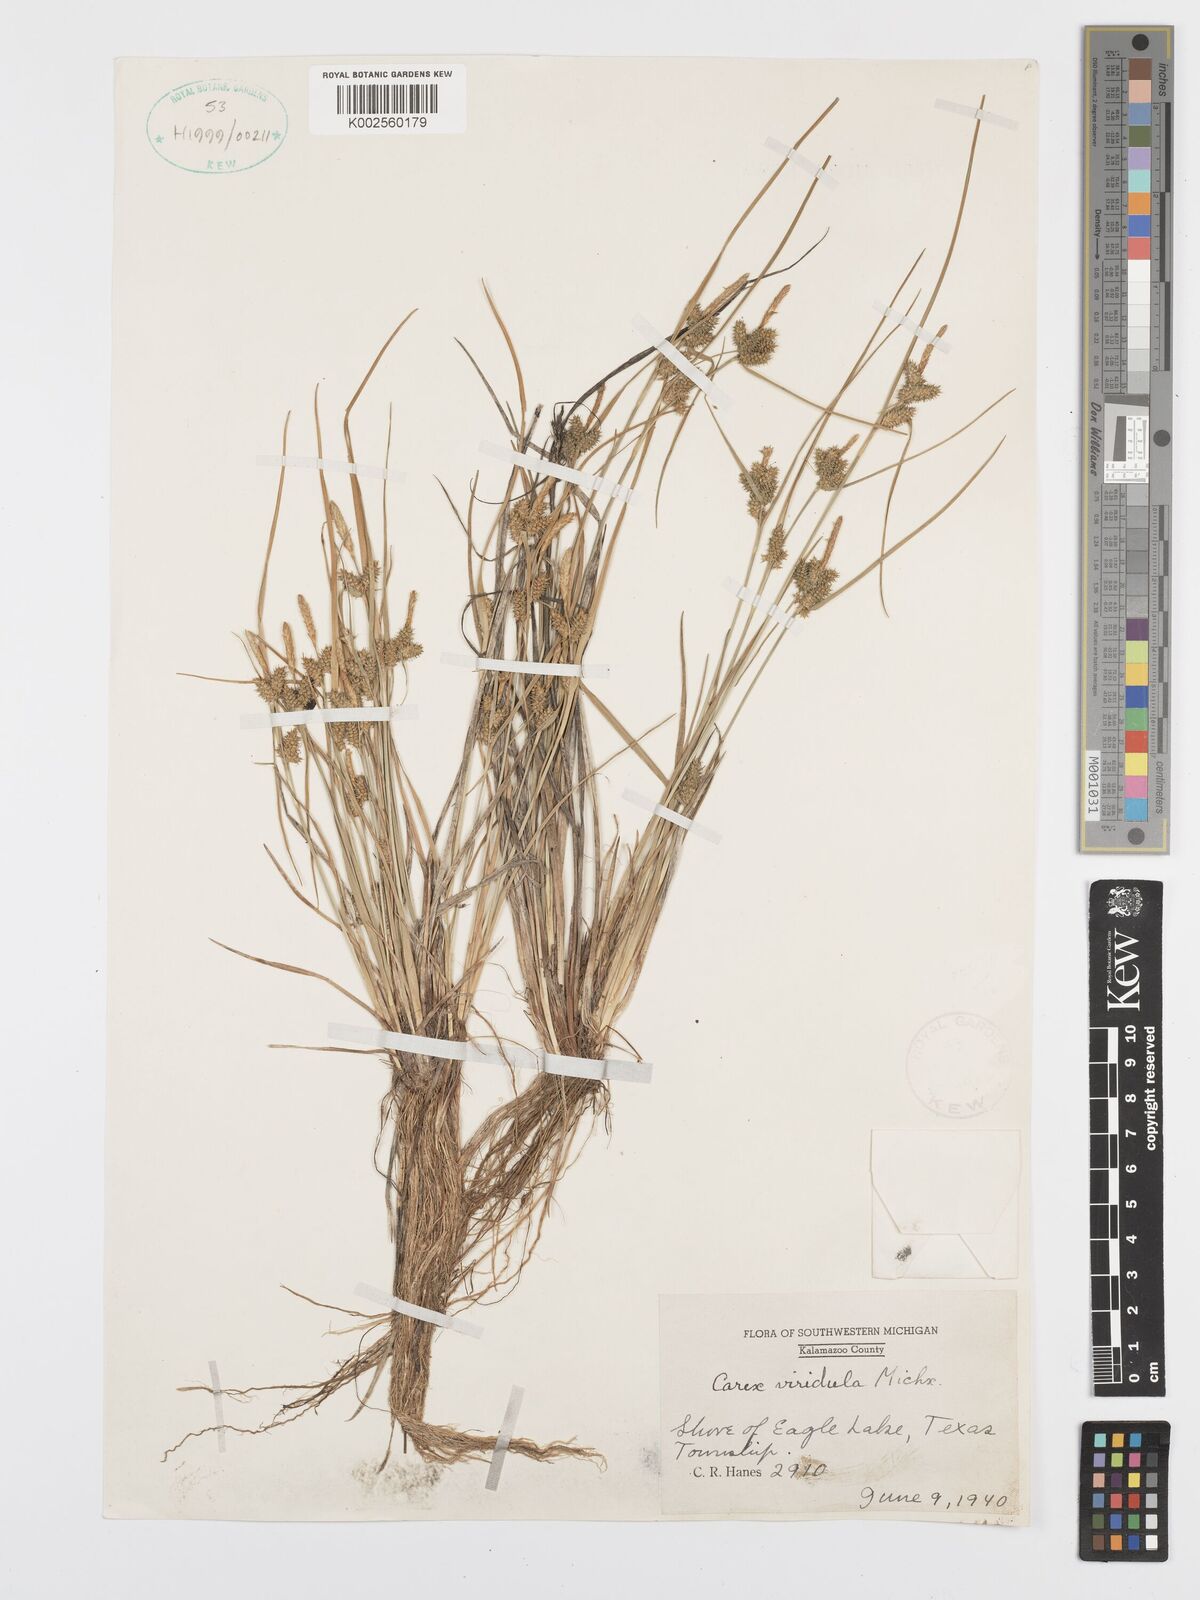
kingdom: Plantae
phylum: Tracheophyta
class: Liliopsida
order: Poales
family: Cyperaceae
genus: Carex
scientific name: Carex oederi
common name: Common & small-fruited yellow-sedge
